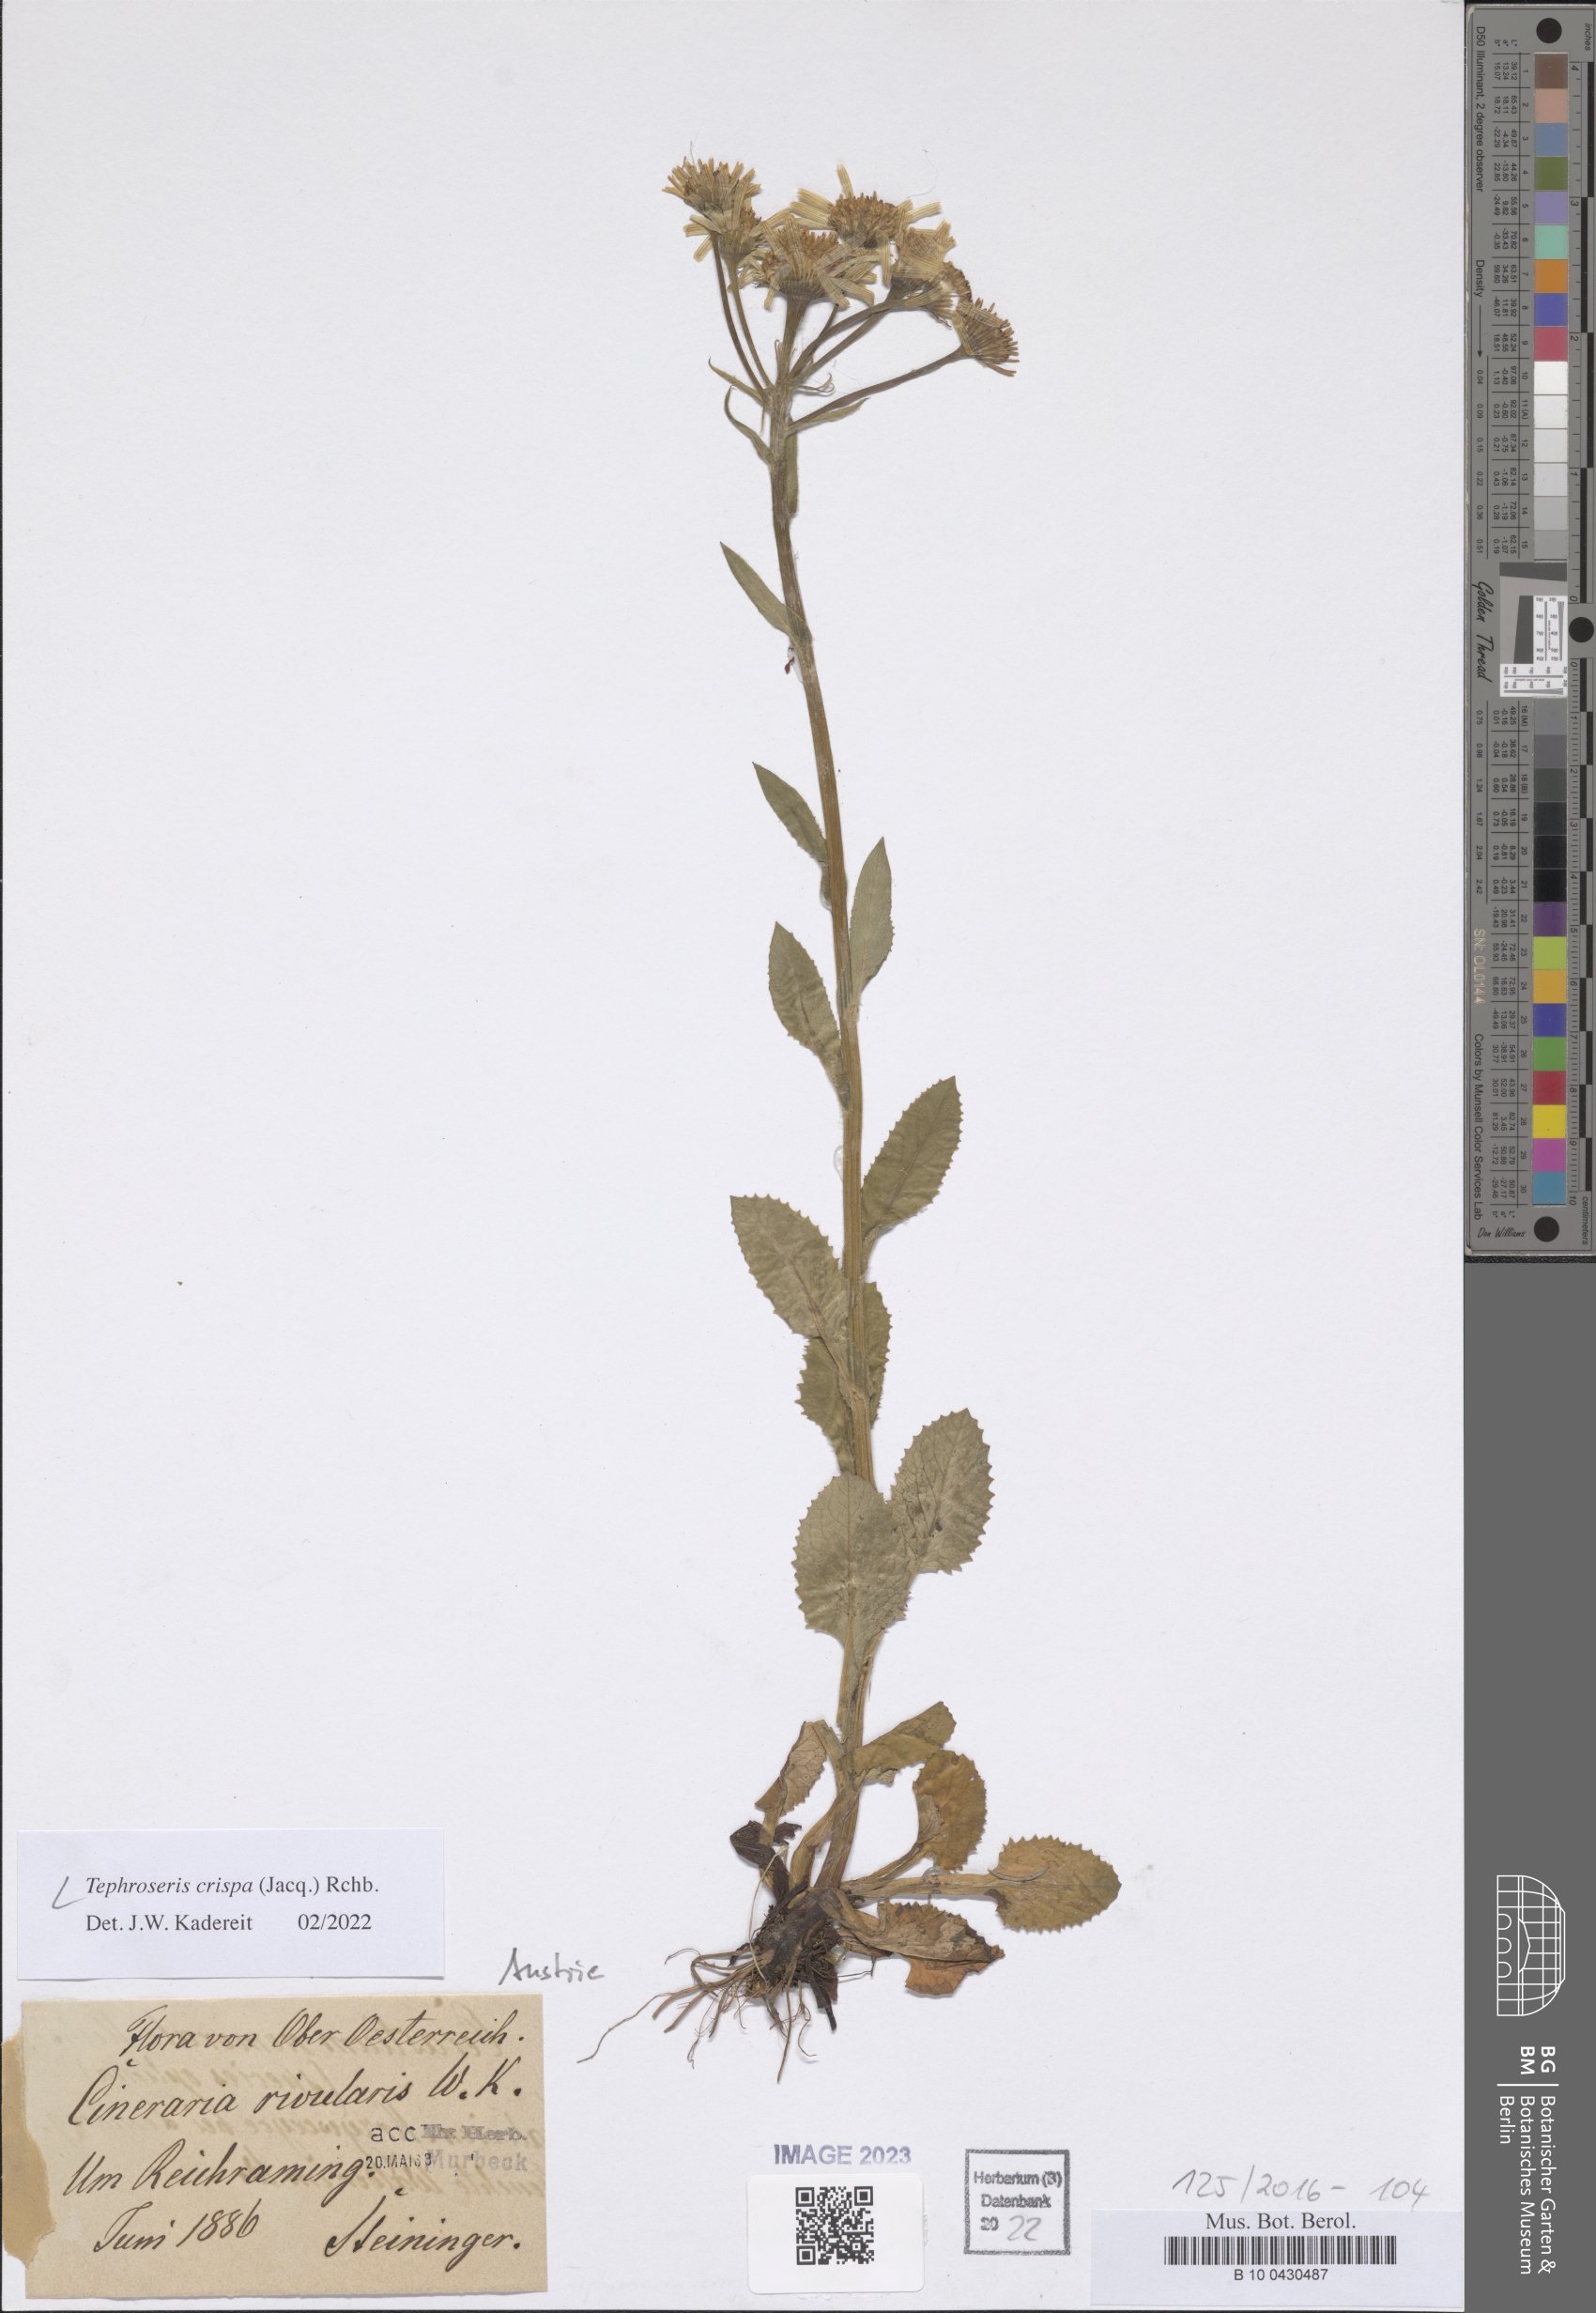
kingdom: Plantae
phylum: Tracheophyta
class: Magnoliopsida
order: Asterales
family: Asteraceae
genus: Tephroseris
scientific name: Tephroseris crispa
